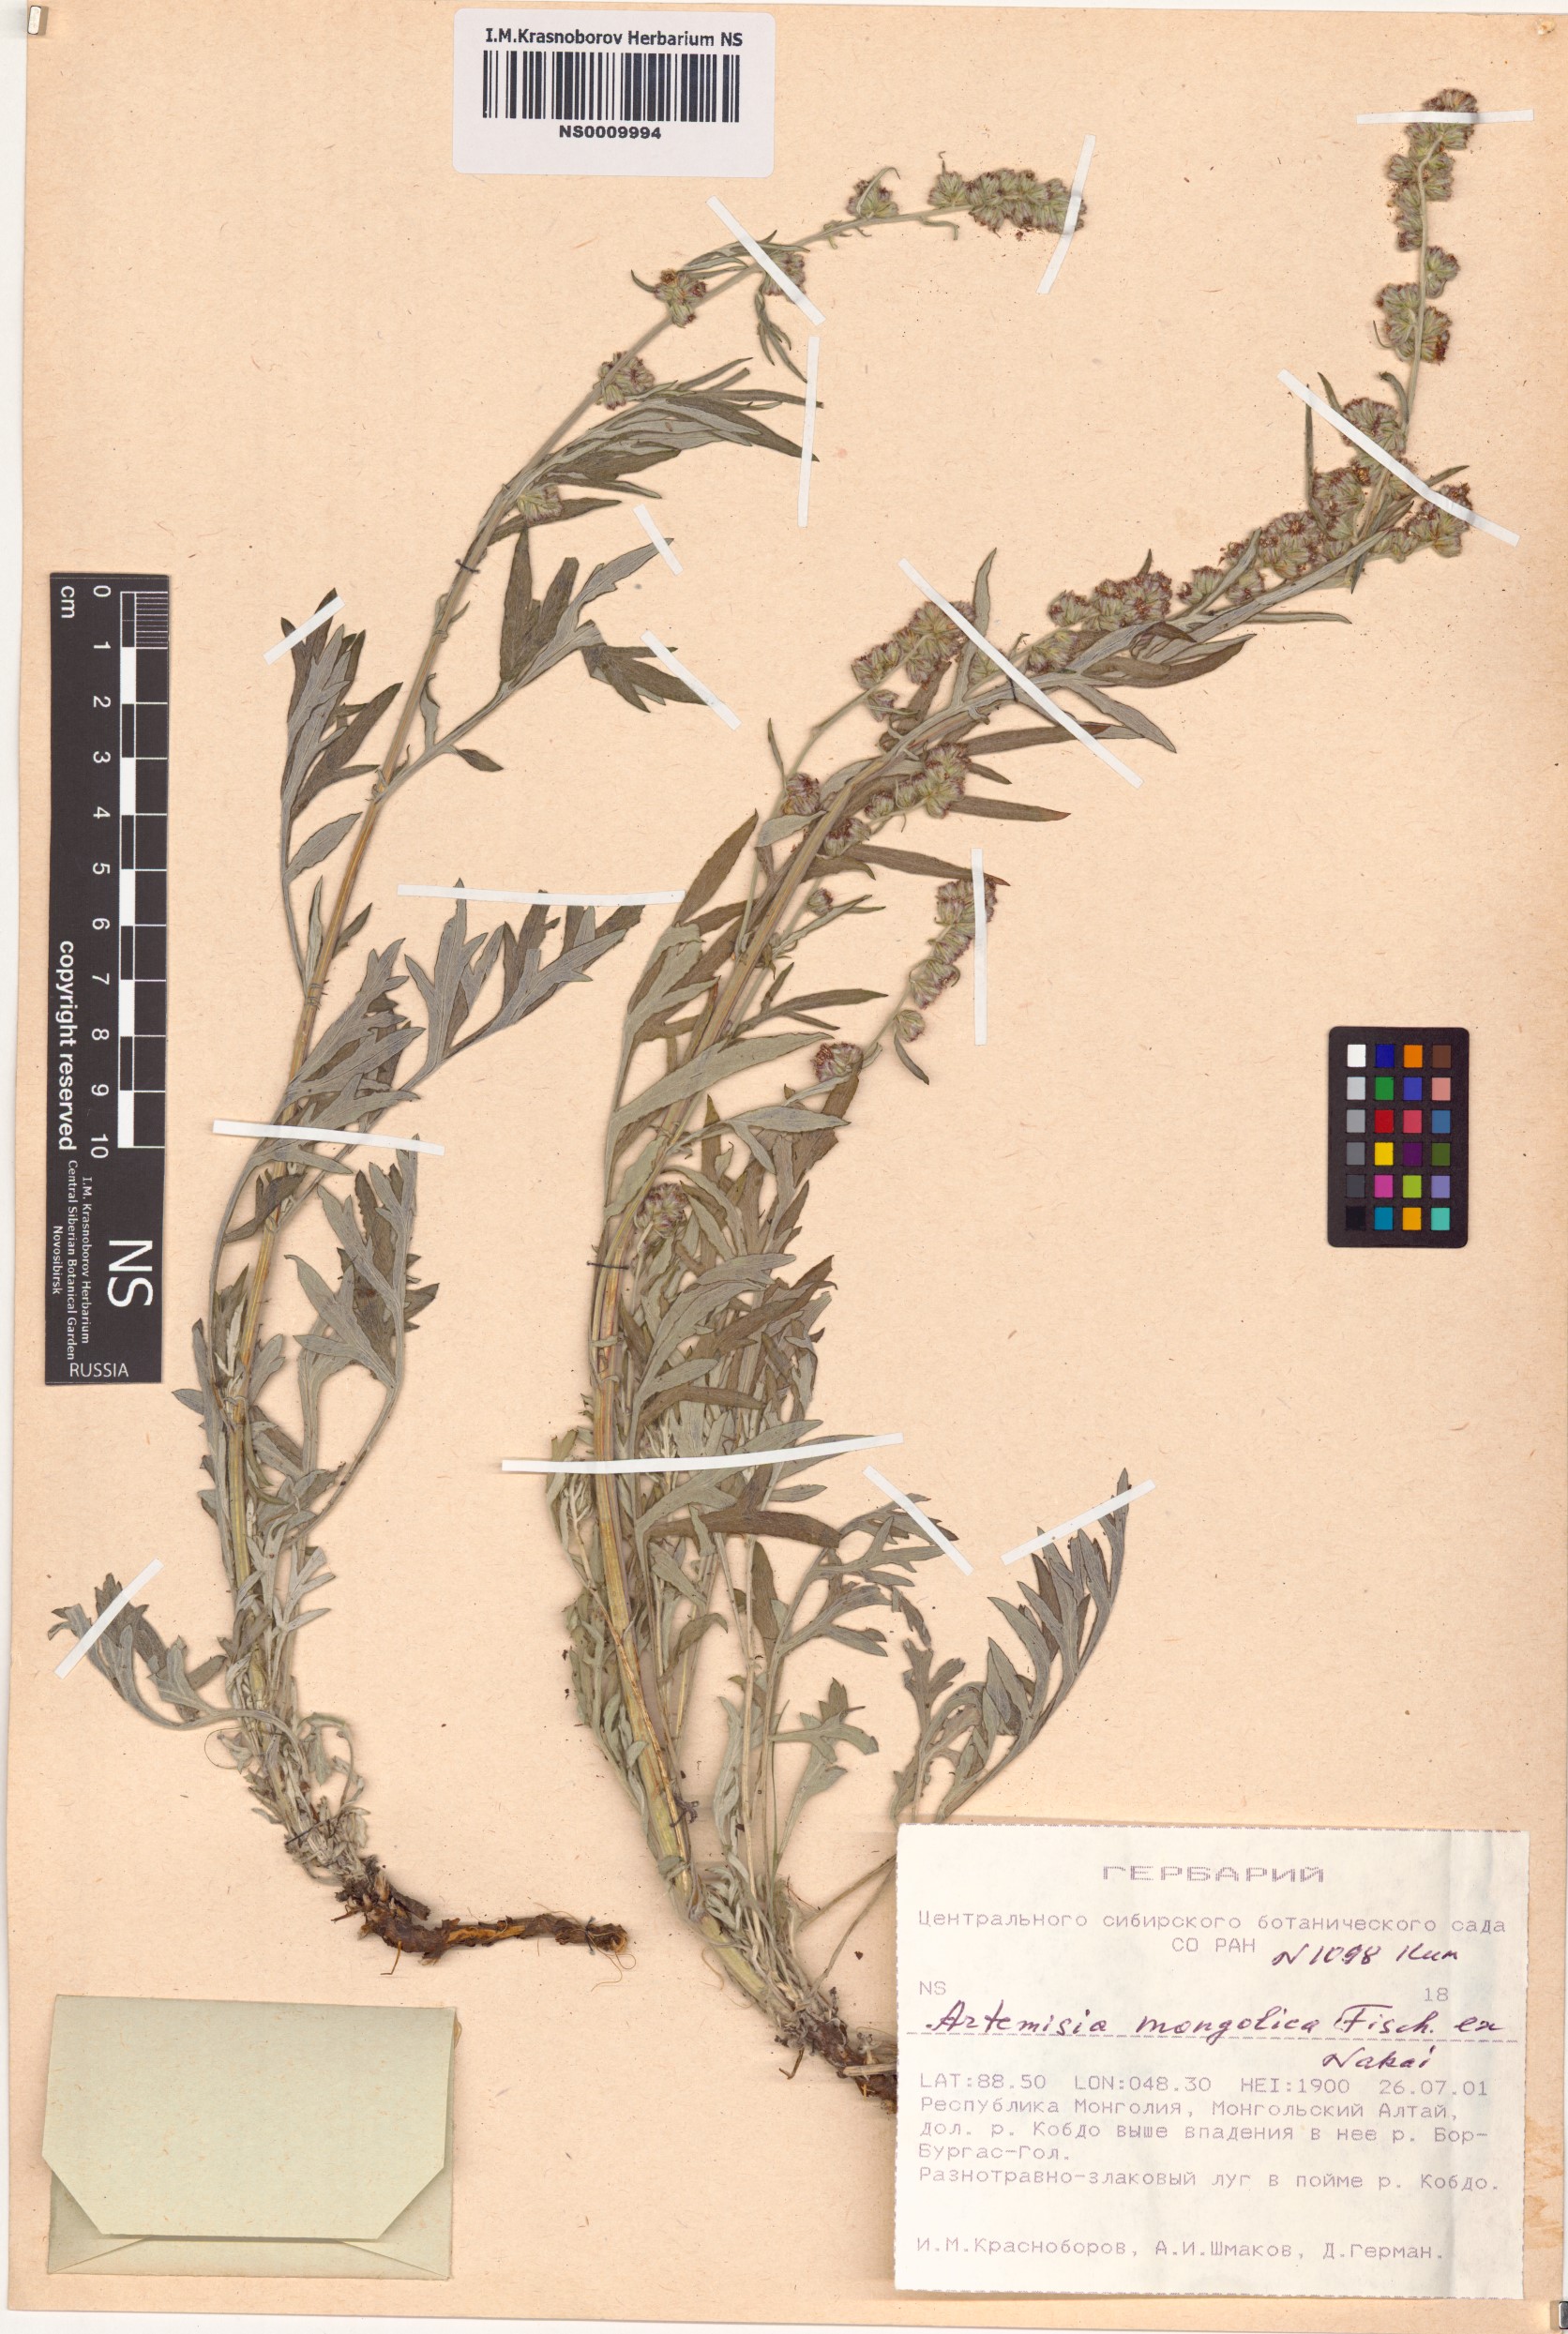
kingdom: Plantae
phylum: Tracheophyta
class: Magnoliopsida
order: Asterales
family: Asteraceae
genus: Artemisia
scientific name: Artemisia mongolica
